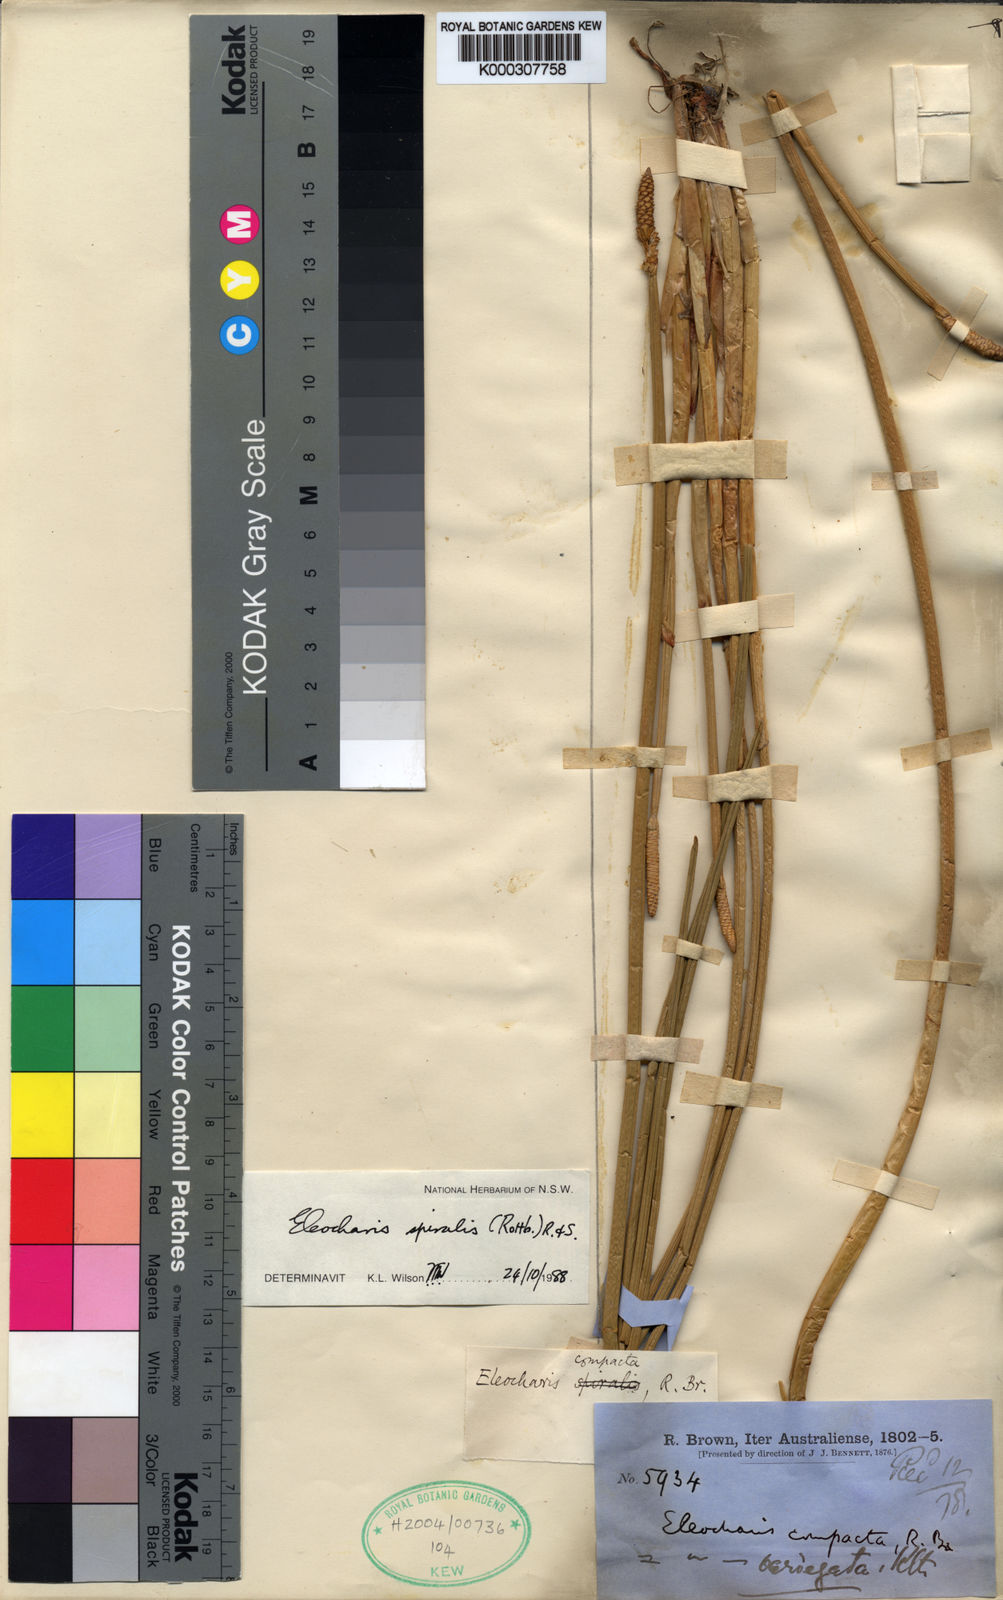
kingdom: Plantae
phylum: Tracheophyta
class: Liliopsida
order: Poales
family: Cyperaceae
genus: Eleocharis
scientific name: Eleocharis spiralis
